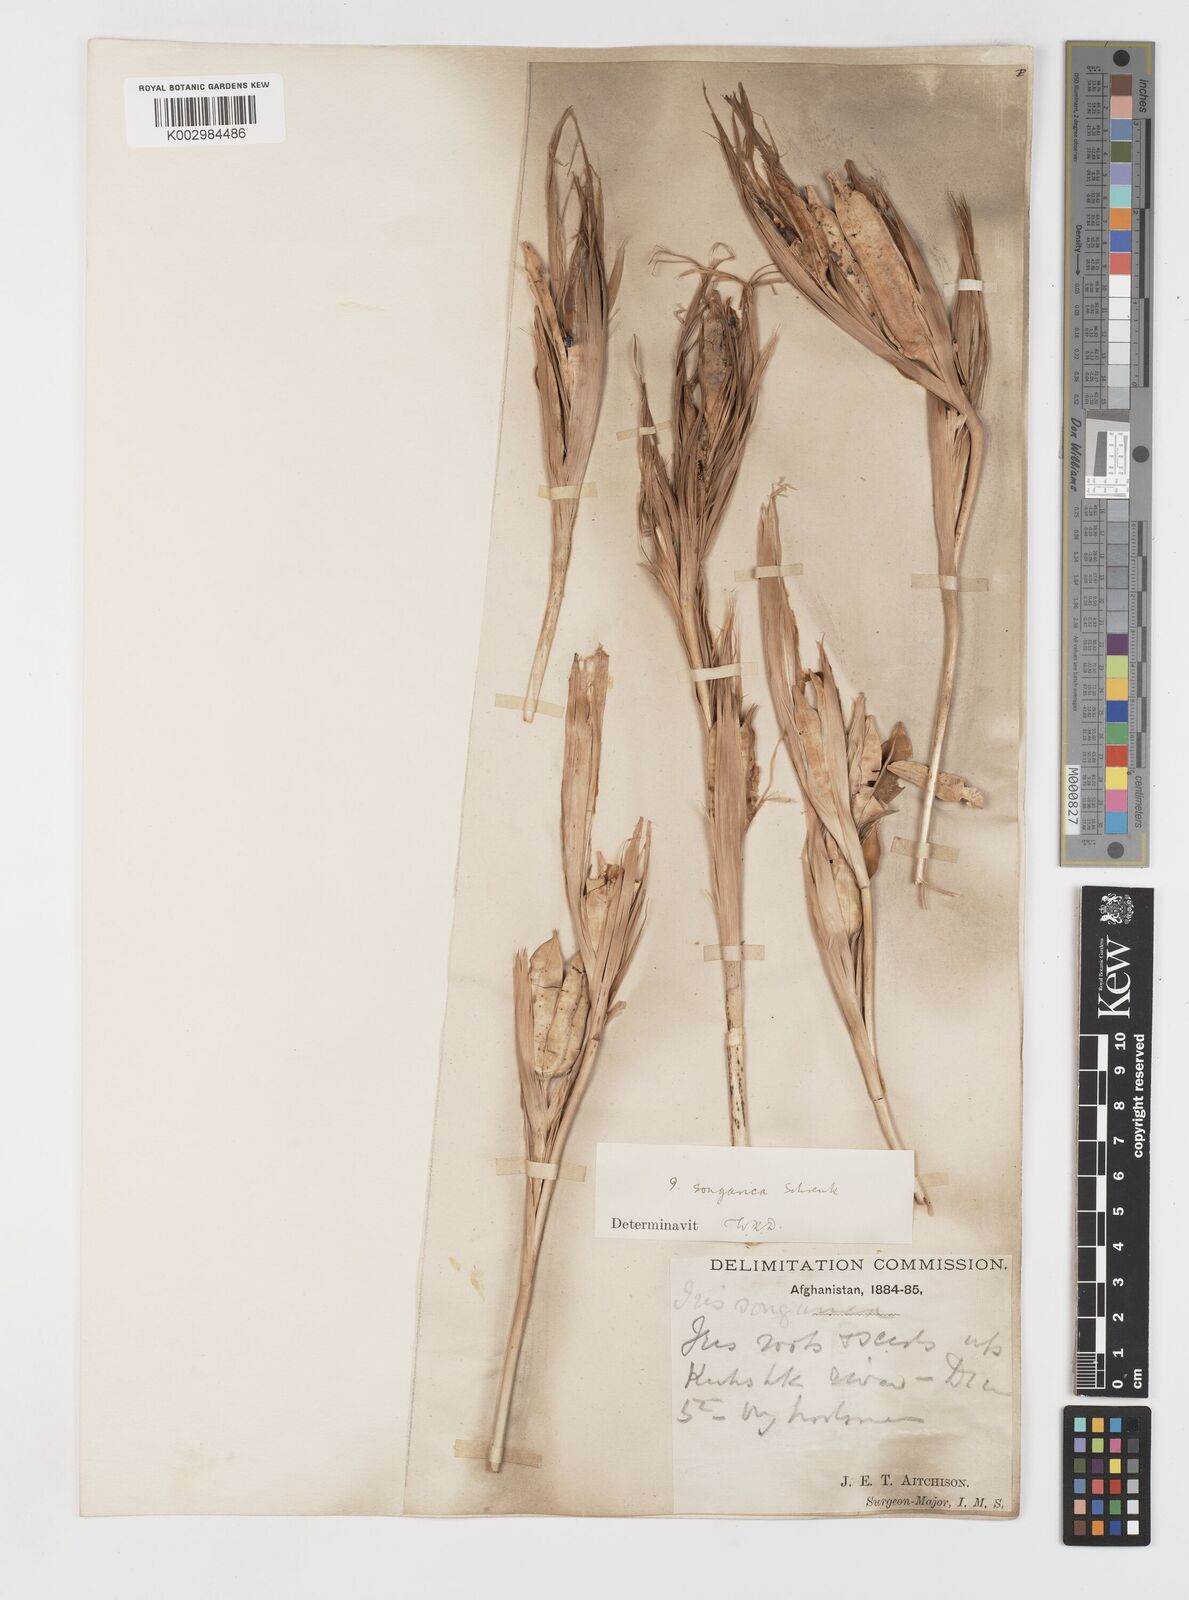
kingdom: Plantae
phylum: Tracheophyta
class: Liliopsida
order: Asparagales
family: Iridaceae
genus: Iris
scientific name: Iris songarica
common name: Songar iris
